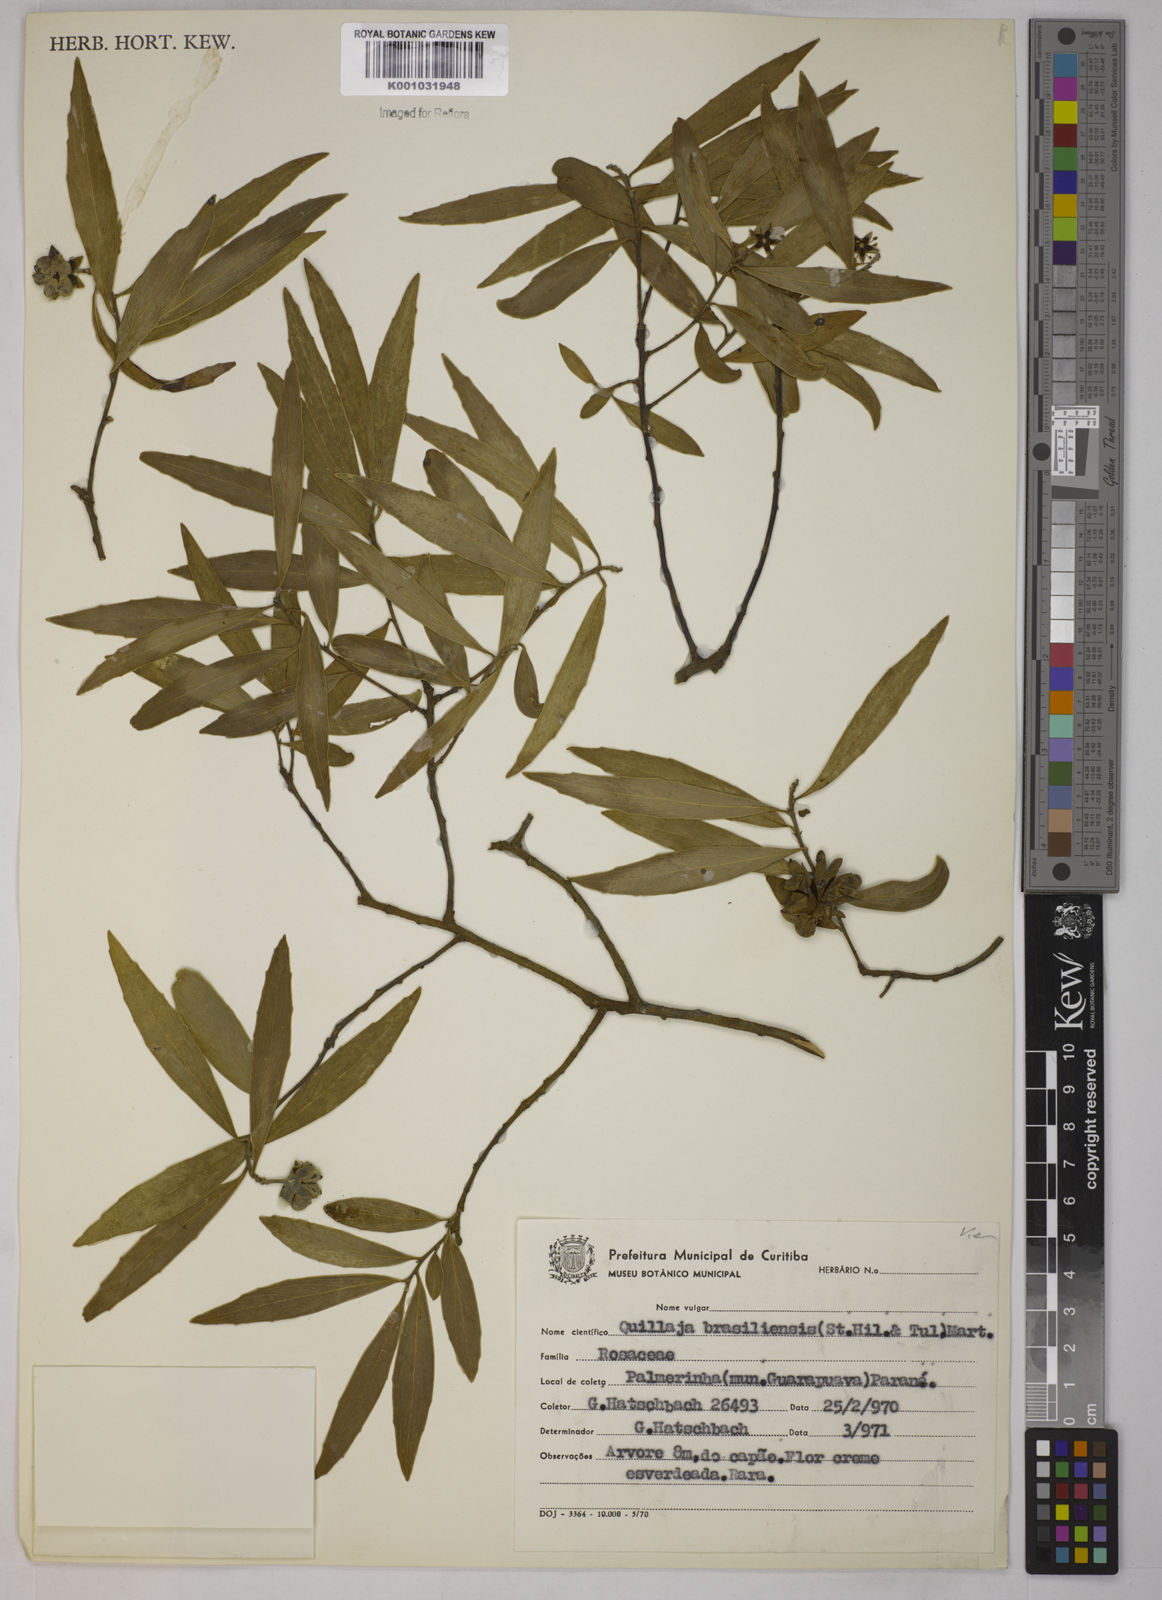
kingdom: Plantae
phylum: Tracheophyta
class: Magnoliopsida
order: Fabales
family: Quillajaceae
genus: Quillaja
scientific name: Quillaja brasiliensis
